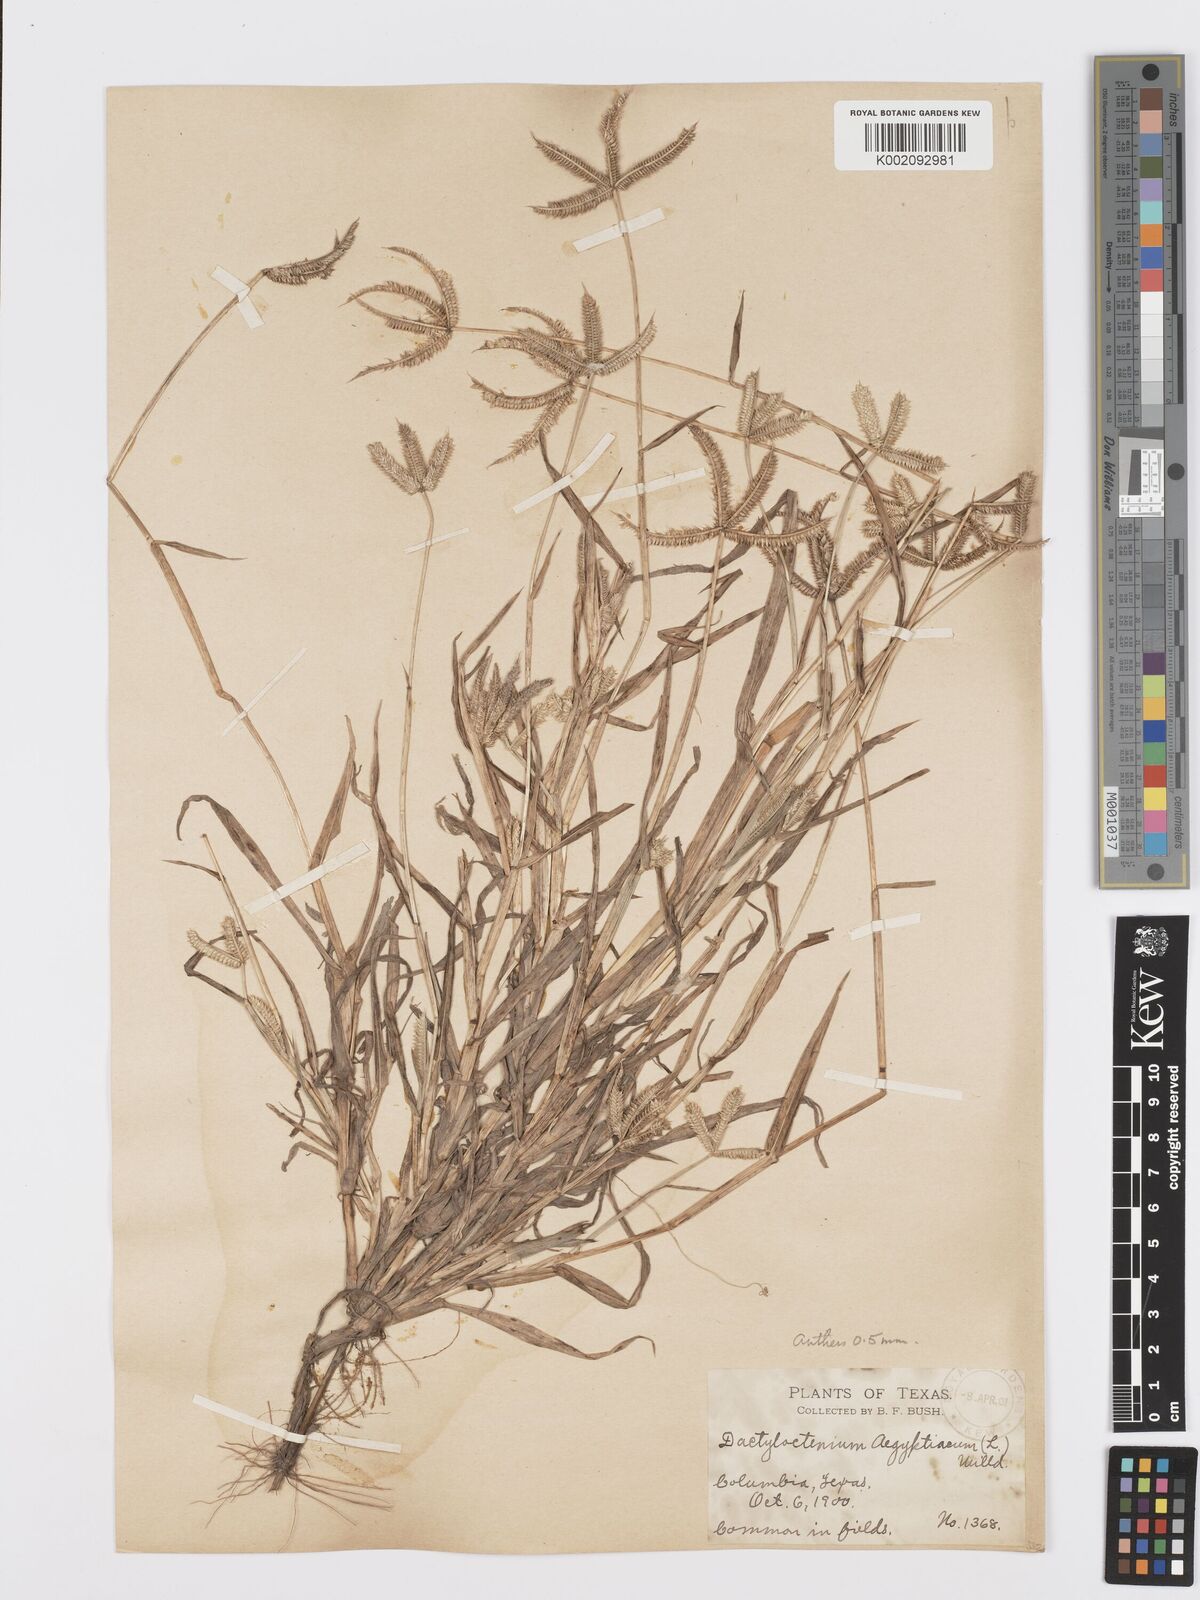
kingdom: Plantae
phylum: Tracheophyta
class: Liliopsida
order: Poales
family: Poaceae
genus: Dactyloctenium
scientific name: Dactyloctenium aegyptium
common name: Egyptian grass
